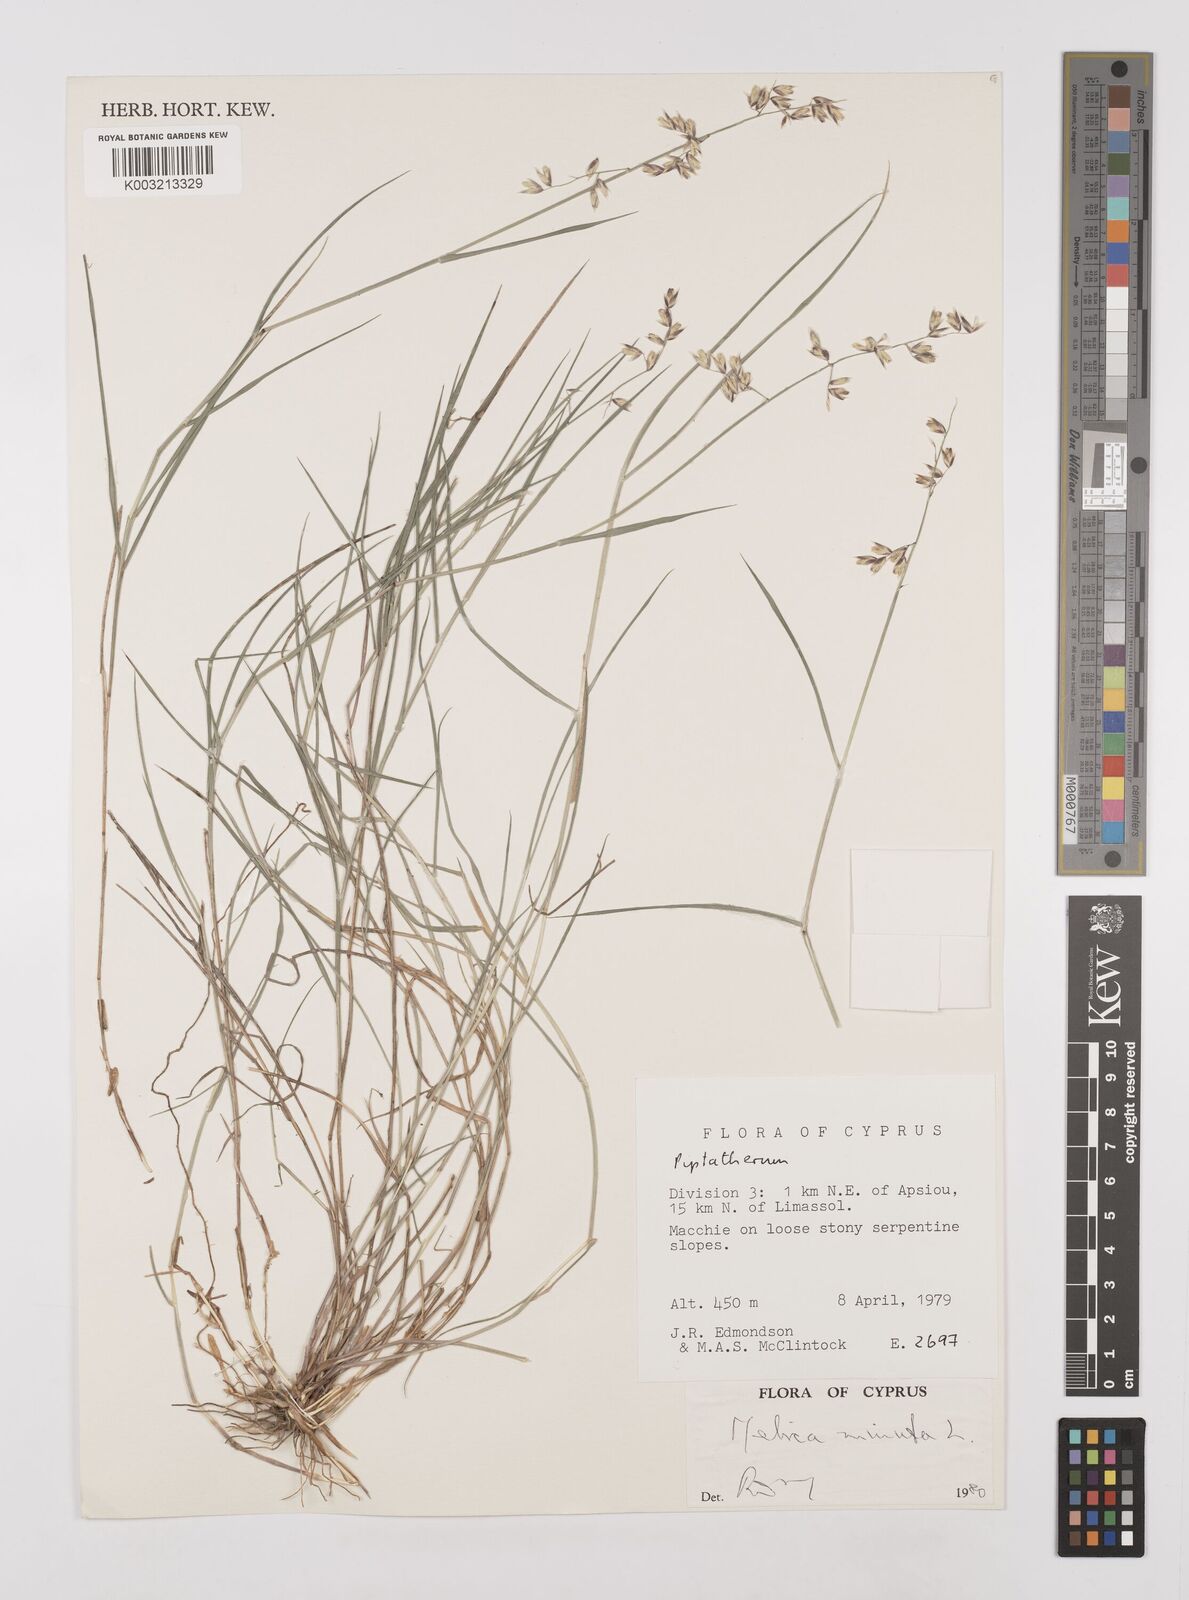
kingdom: Plantae
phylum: Tracheophyta
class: Liliopsida
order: Poales
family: Poaceae
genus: Melica
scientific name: Melica minuta
